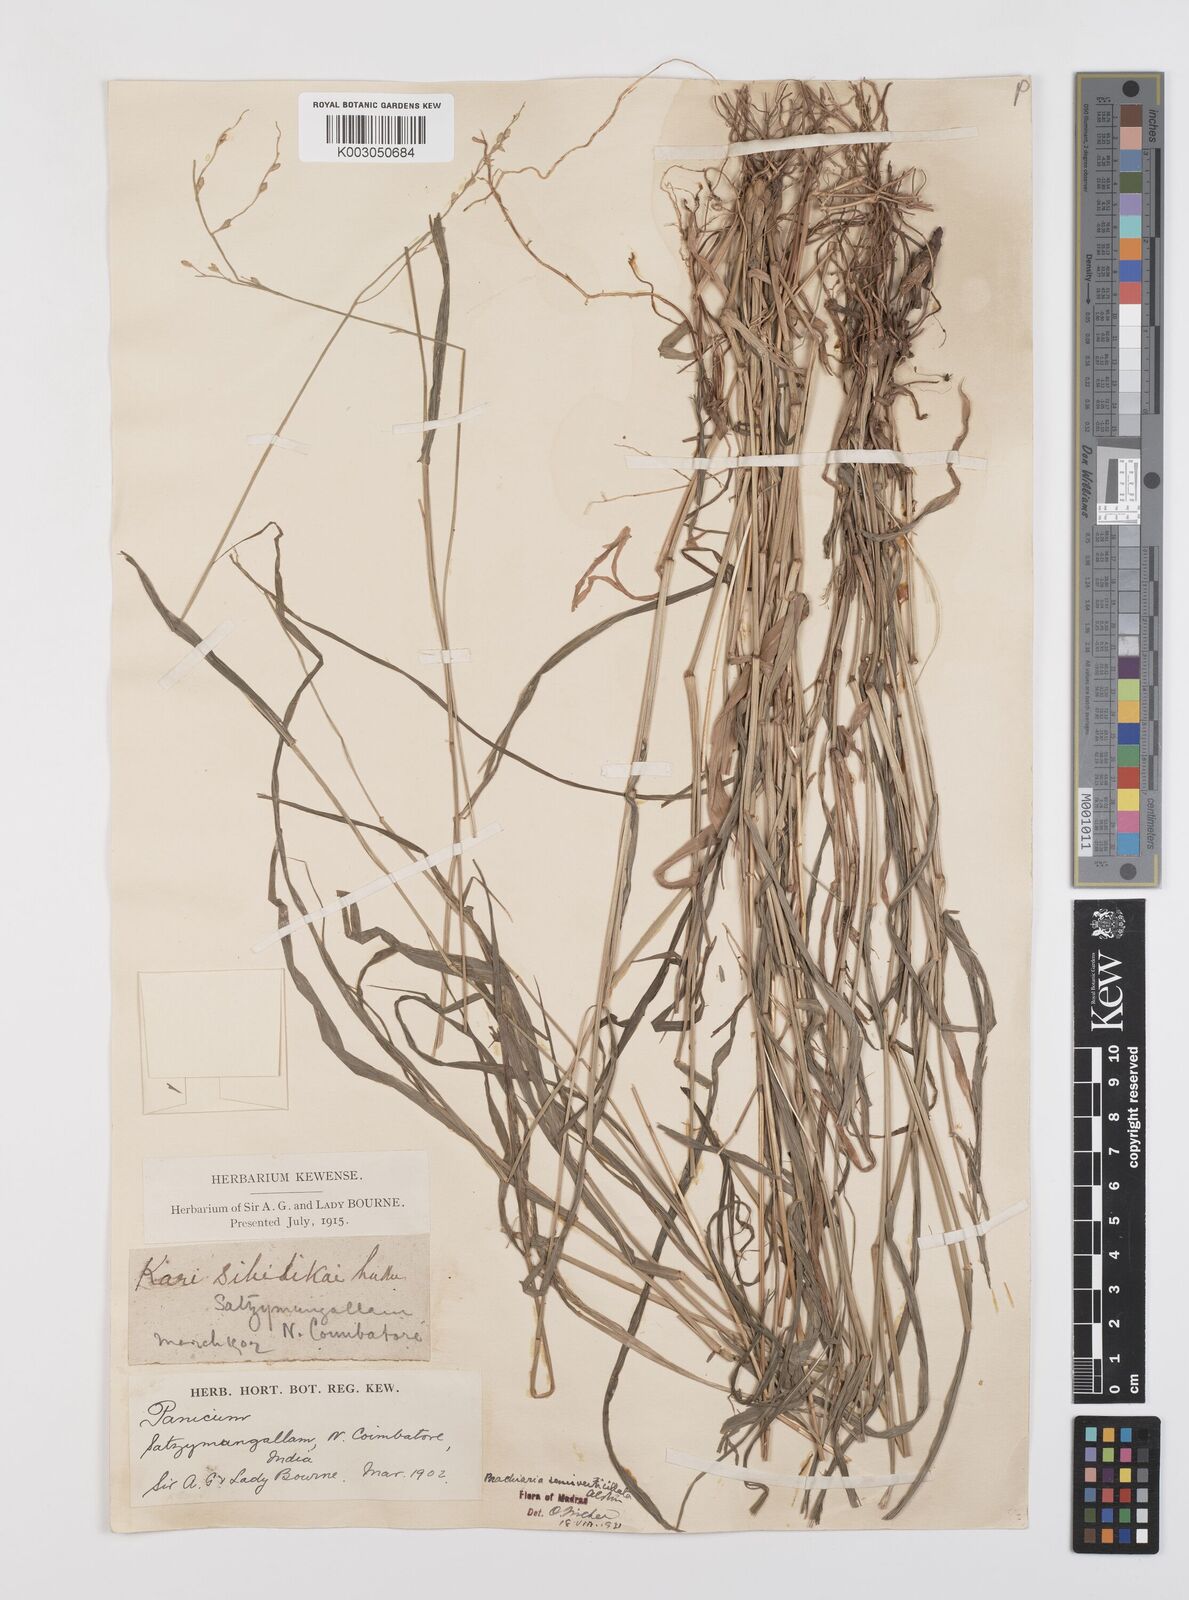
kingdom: Plantae
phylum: Tracheophyta
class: Liliopsida
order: Poales
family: Poaceae
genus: Urochloa
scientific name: Urochloa Brachiaria semiverticillata
